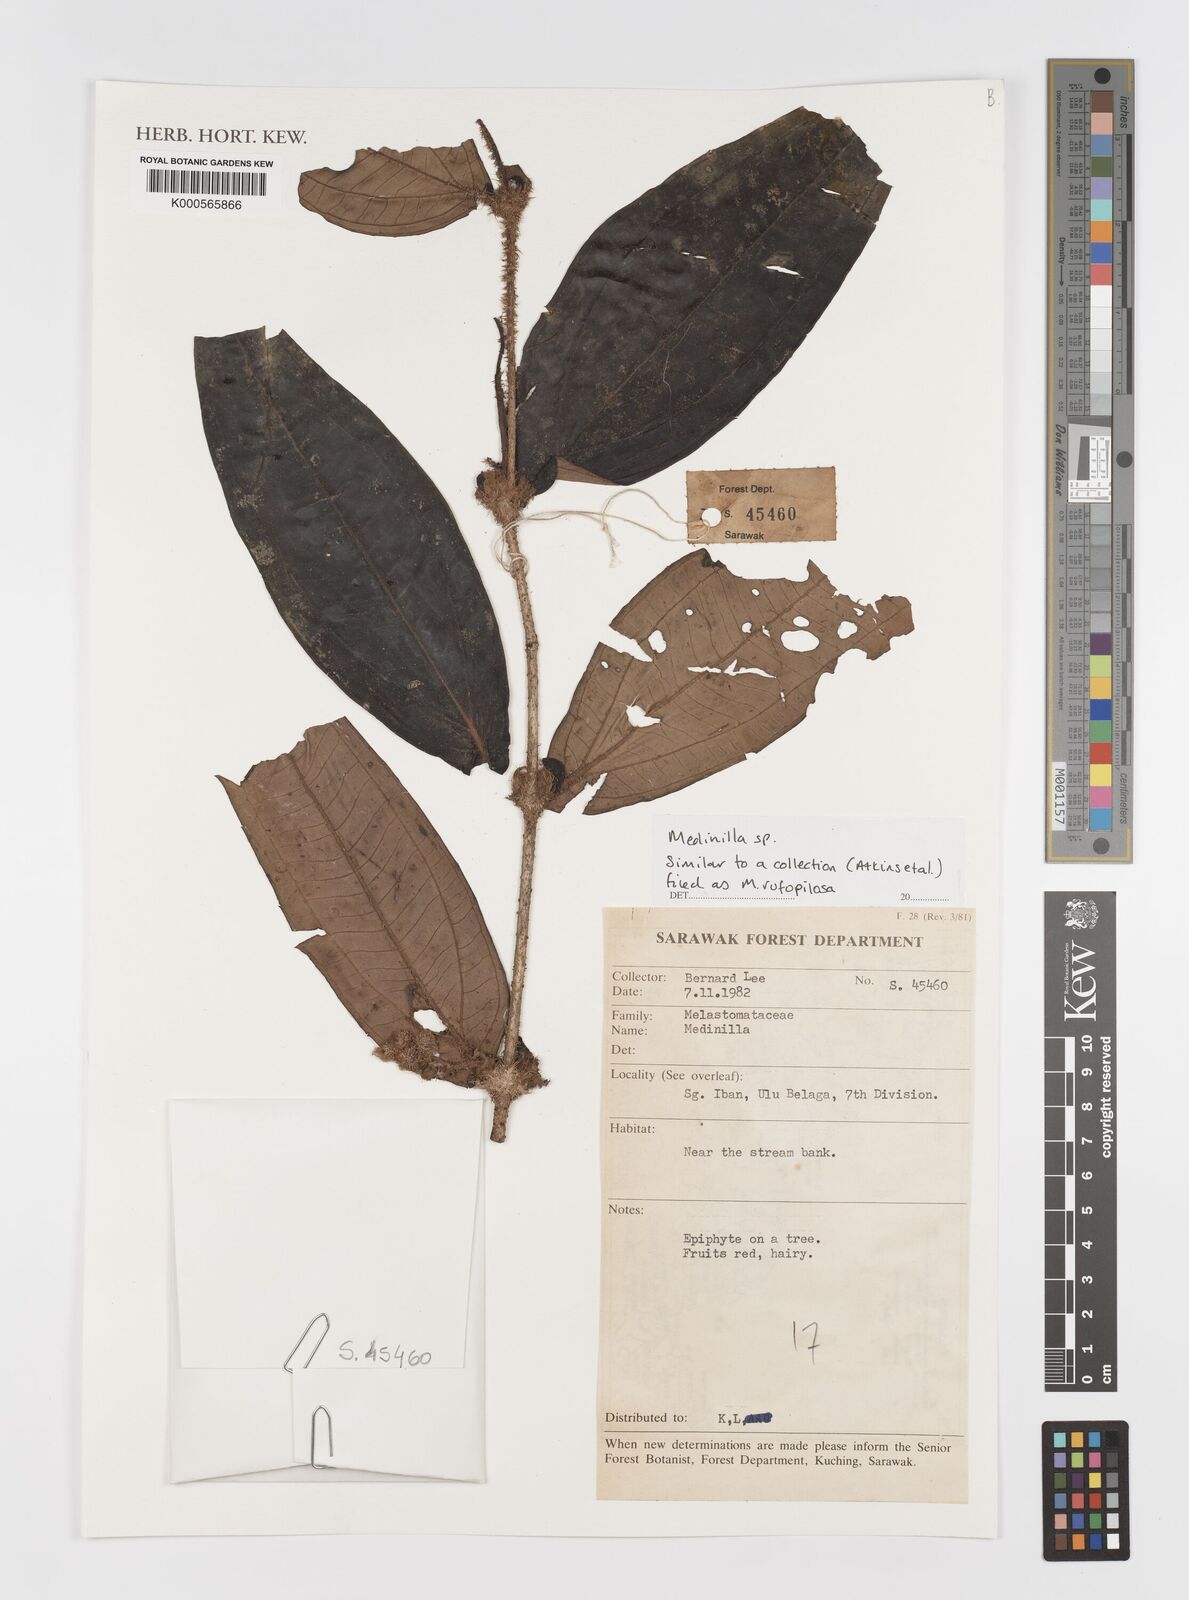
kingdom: Plantae
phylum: Tracheophyta
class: Magnoliopsida
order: Myrtales
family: Melastomataceae
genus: Medinilla
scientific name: Medinilla
